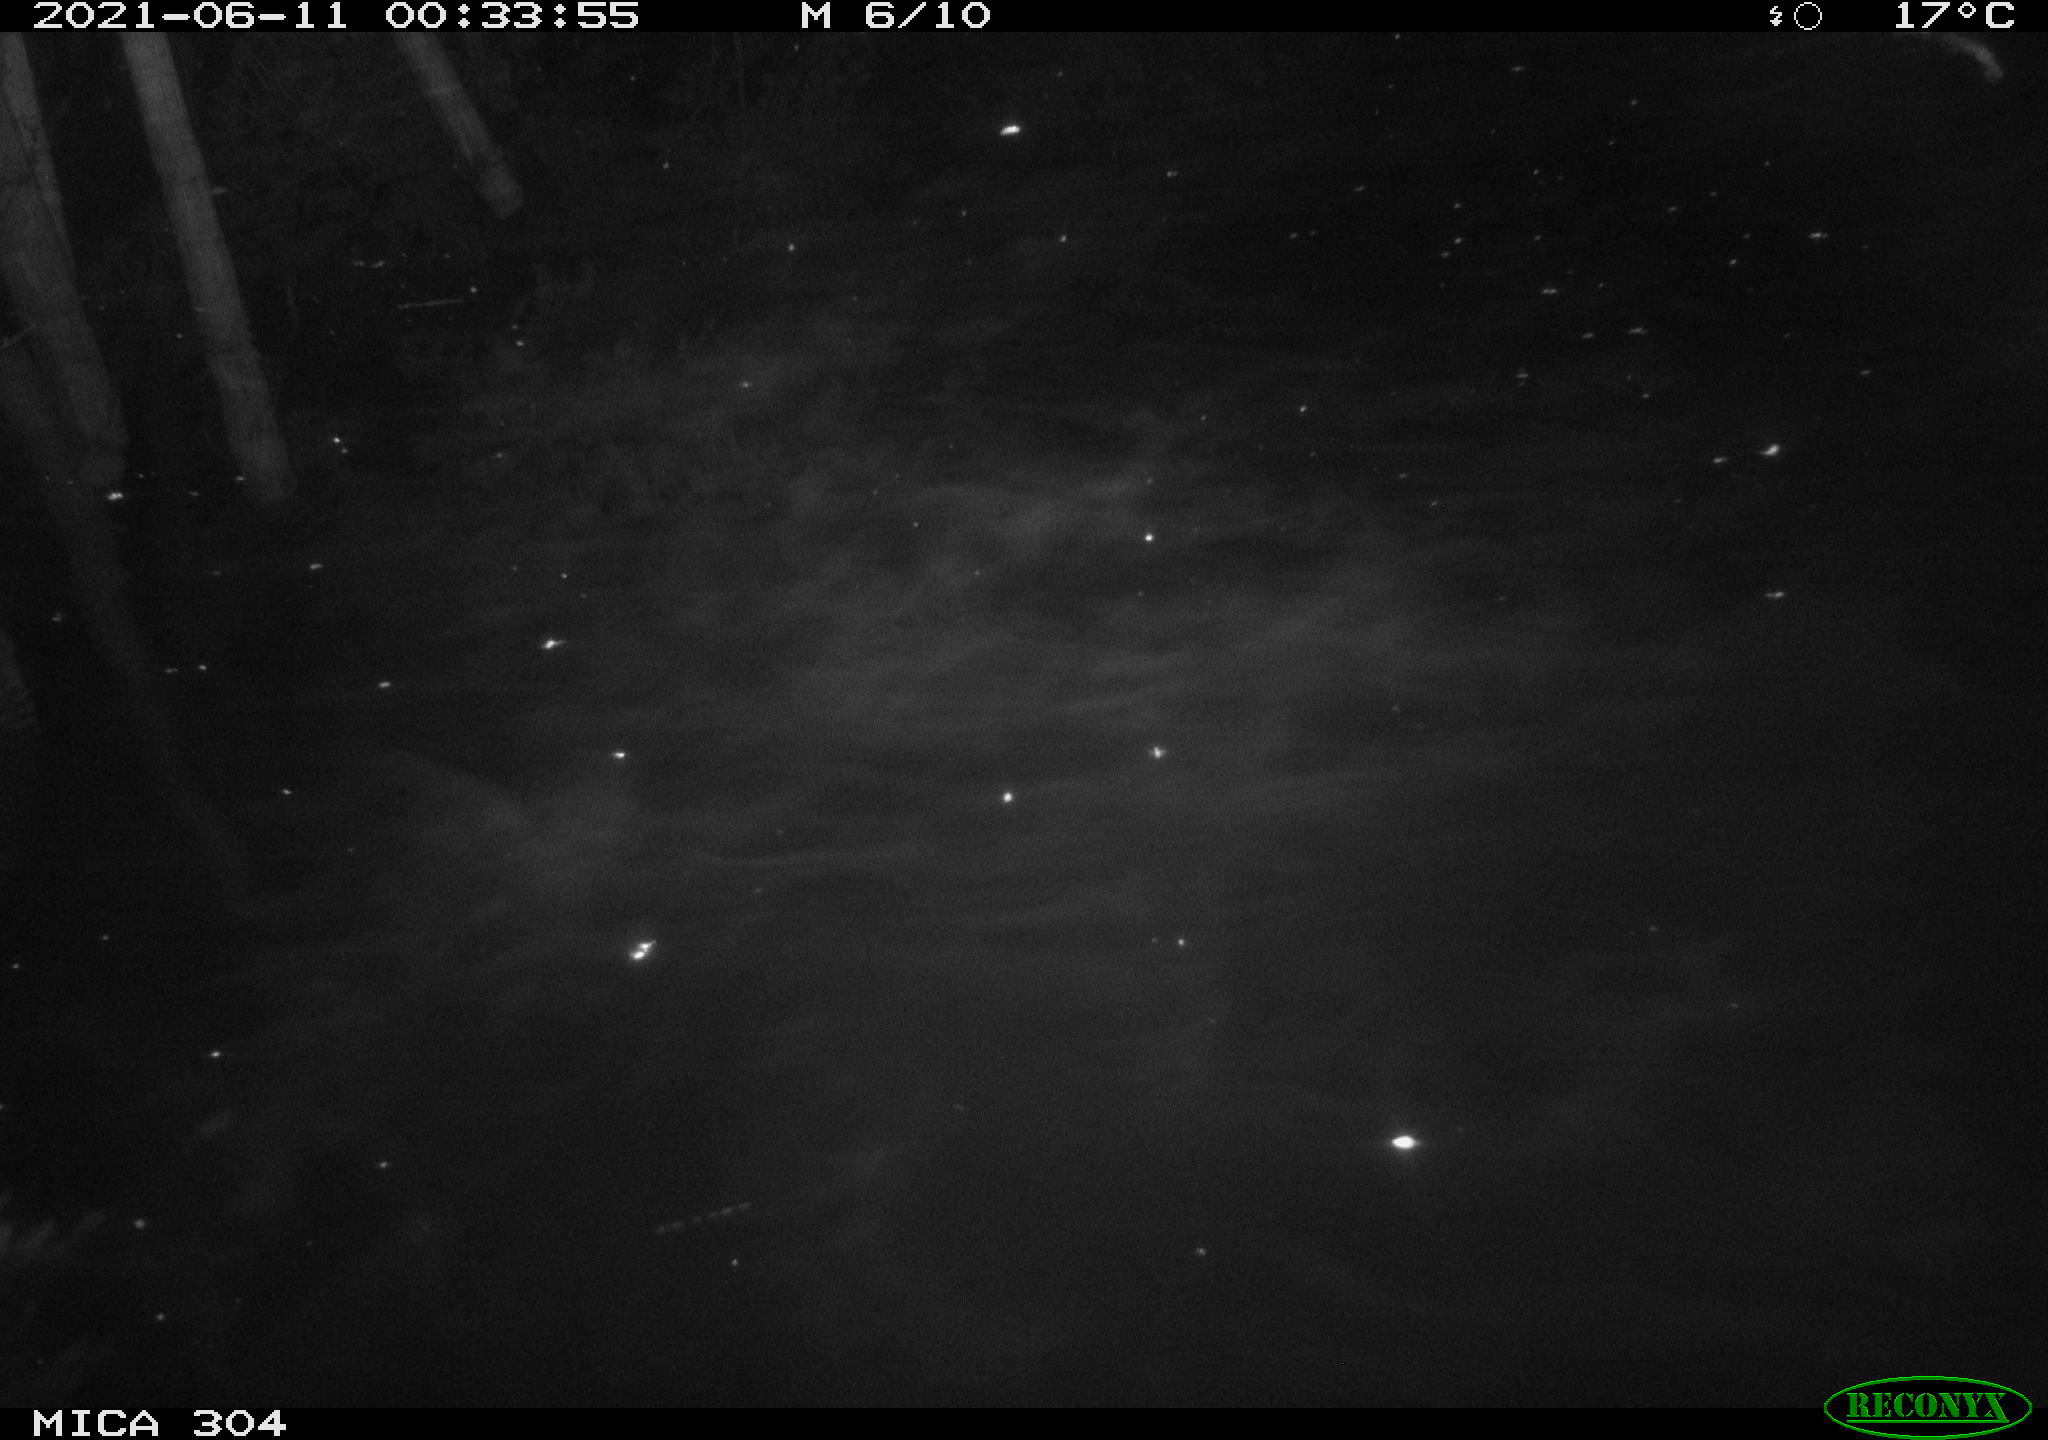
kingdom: Animalia
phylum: Chordata
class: Mammalia
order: Rodentia
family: Cricetidae
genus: Ondatra
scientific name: Ondatra zibethicus
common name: Muskrat
